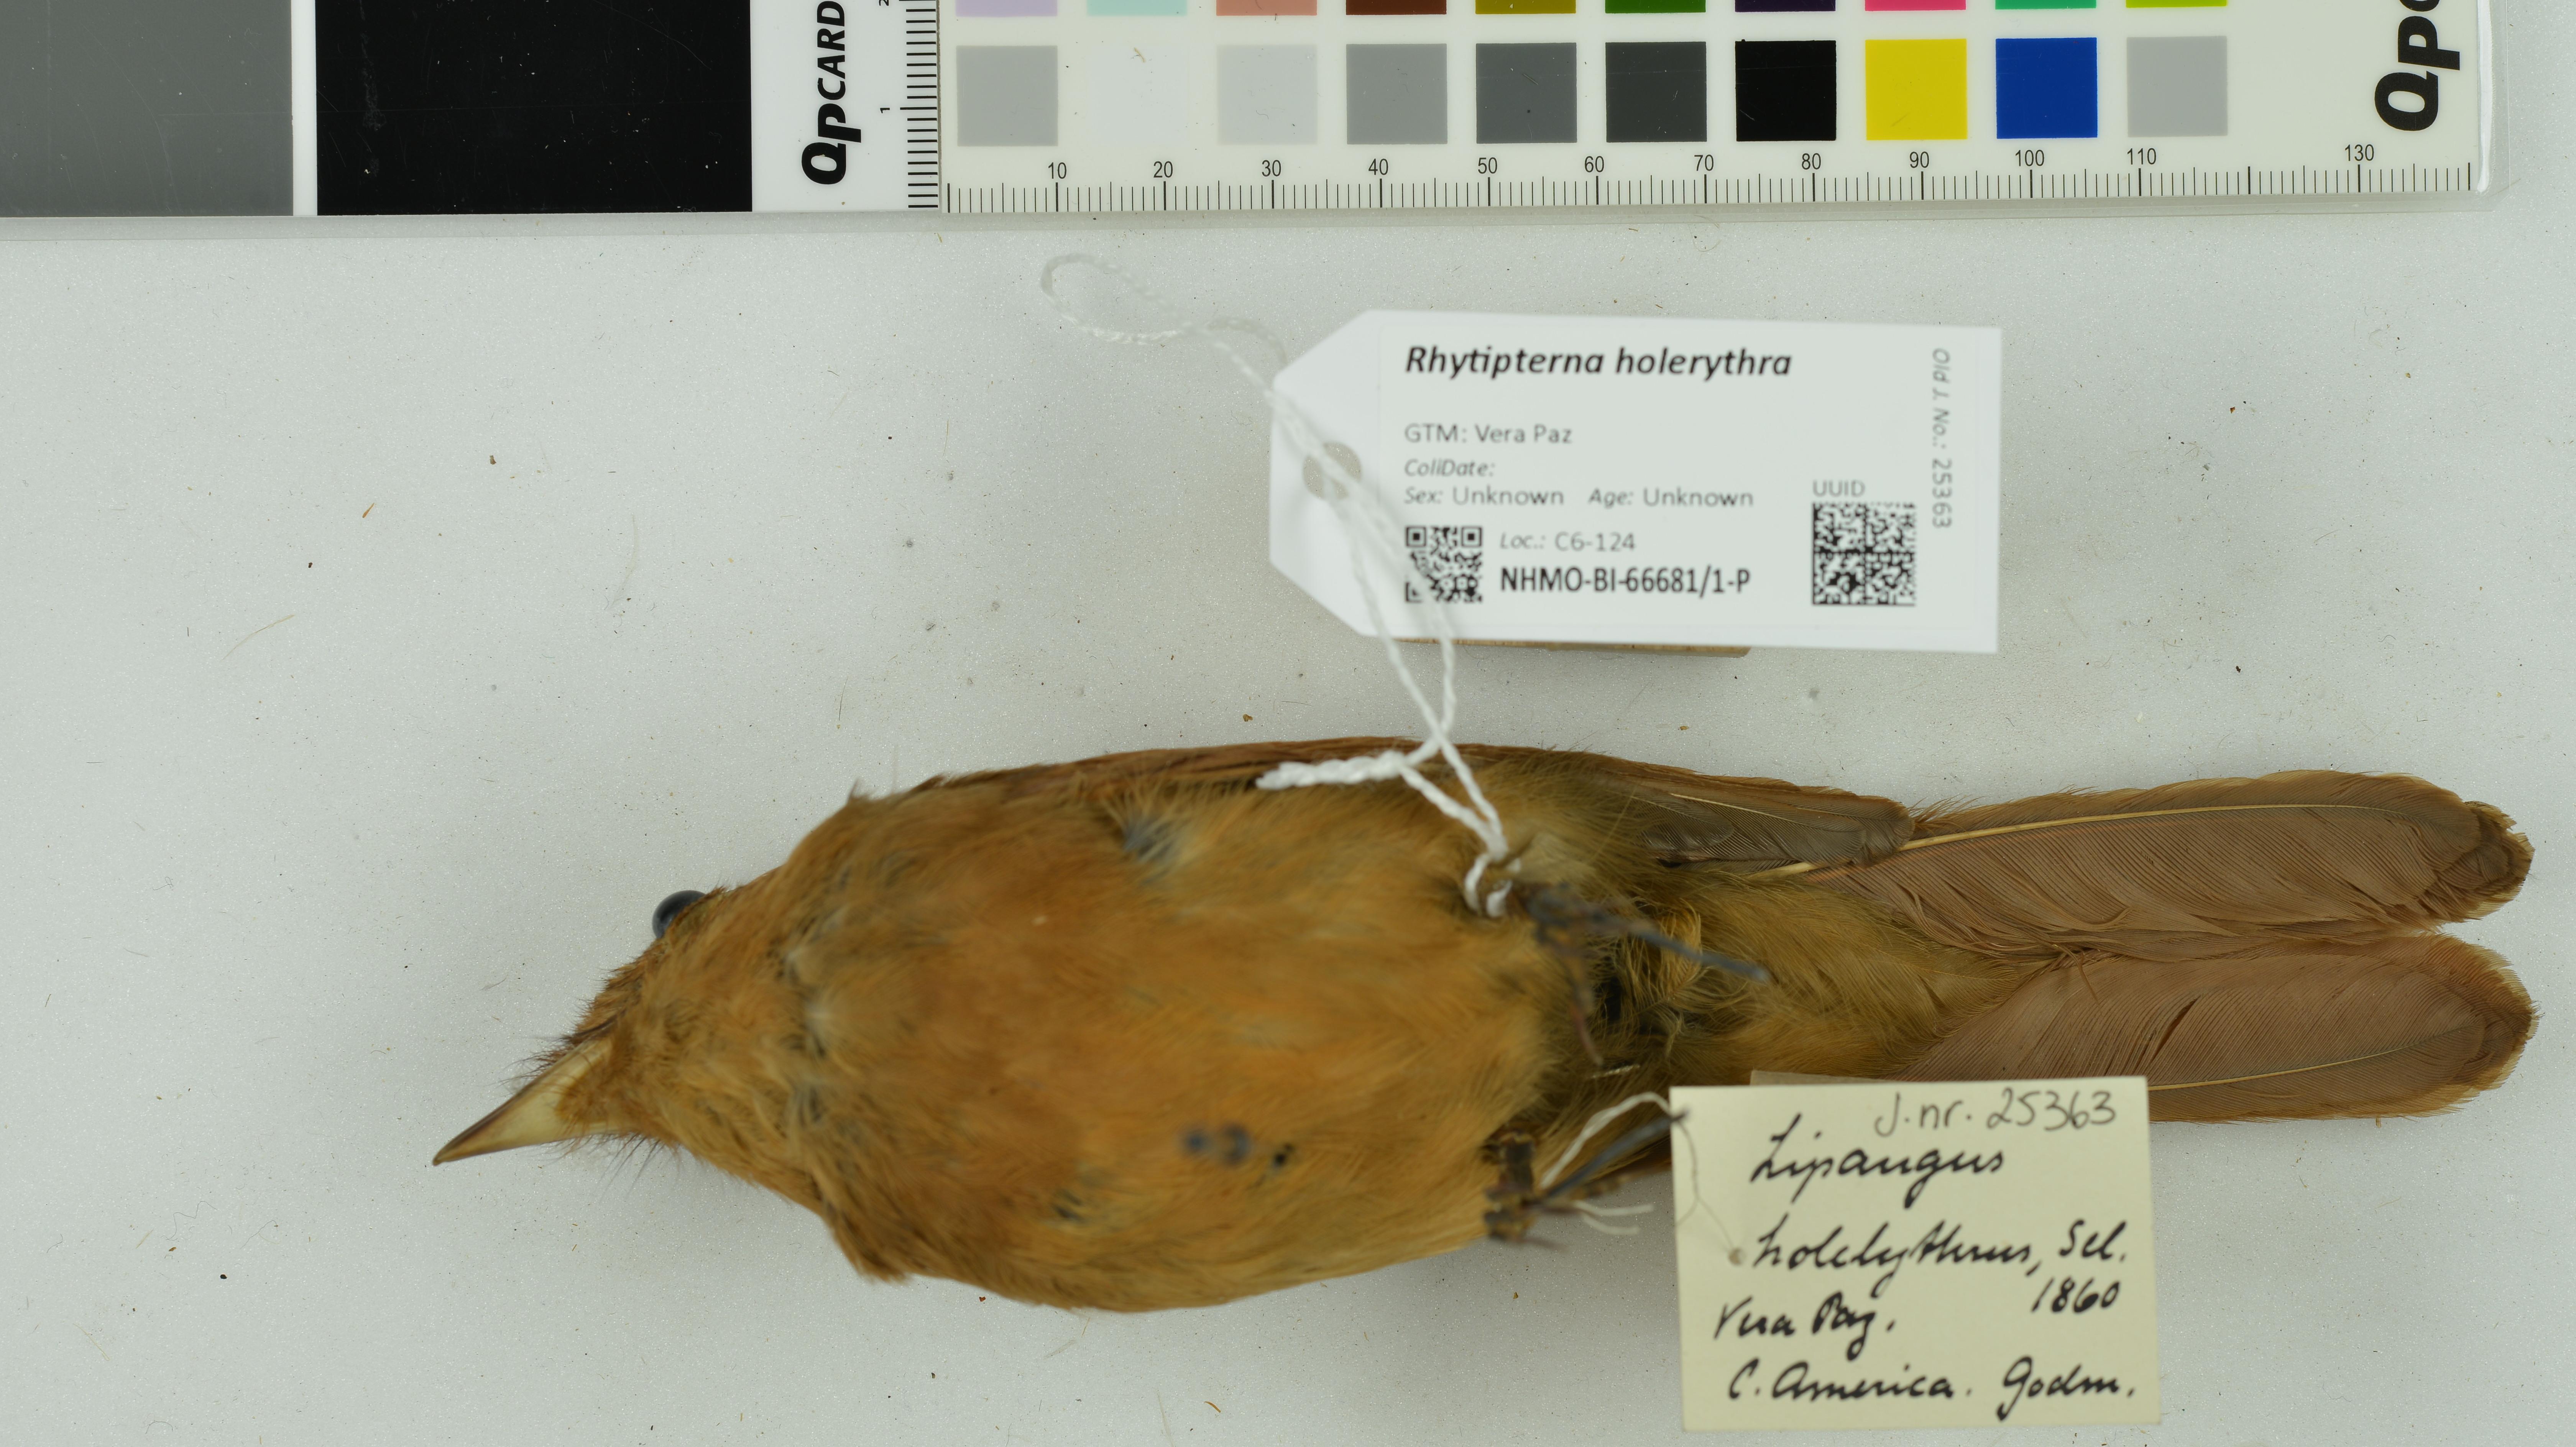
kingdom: Animalia
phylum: Chordata
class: Aves
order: Passeriformes
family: Tyrannidae
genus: Rhytipterna
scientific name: Rhytipterna holerythra
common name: Rufous mourner
